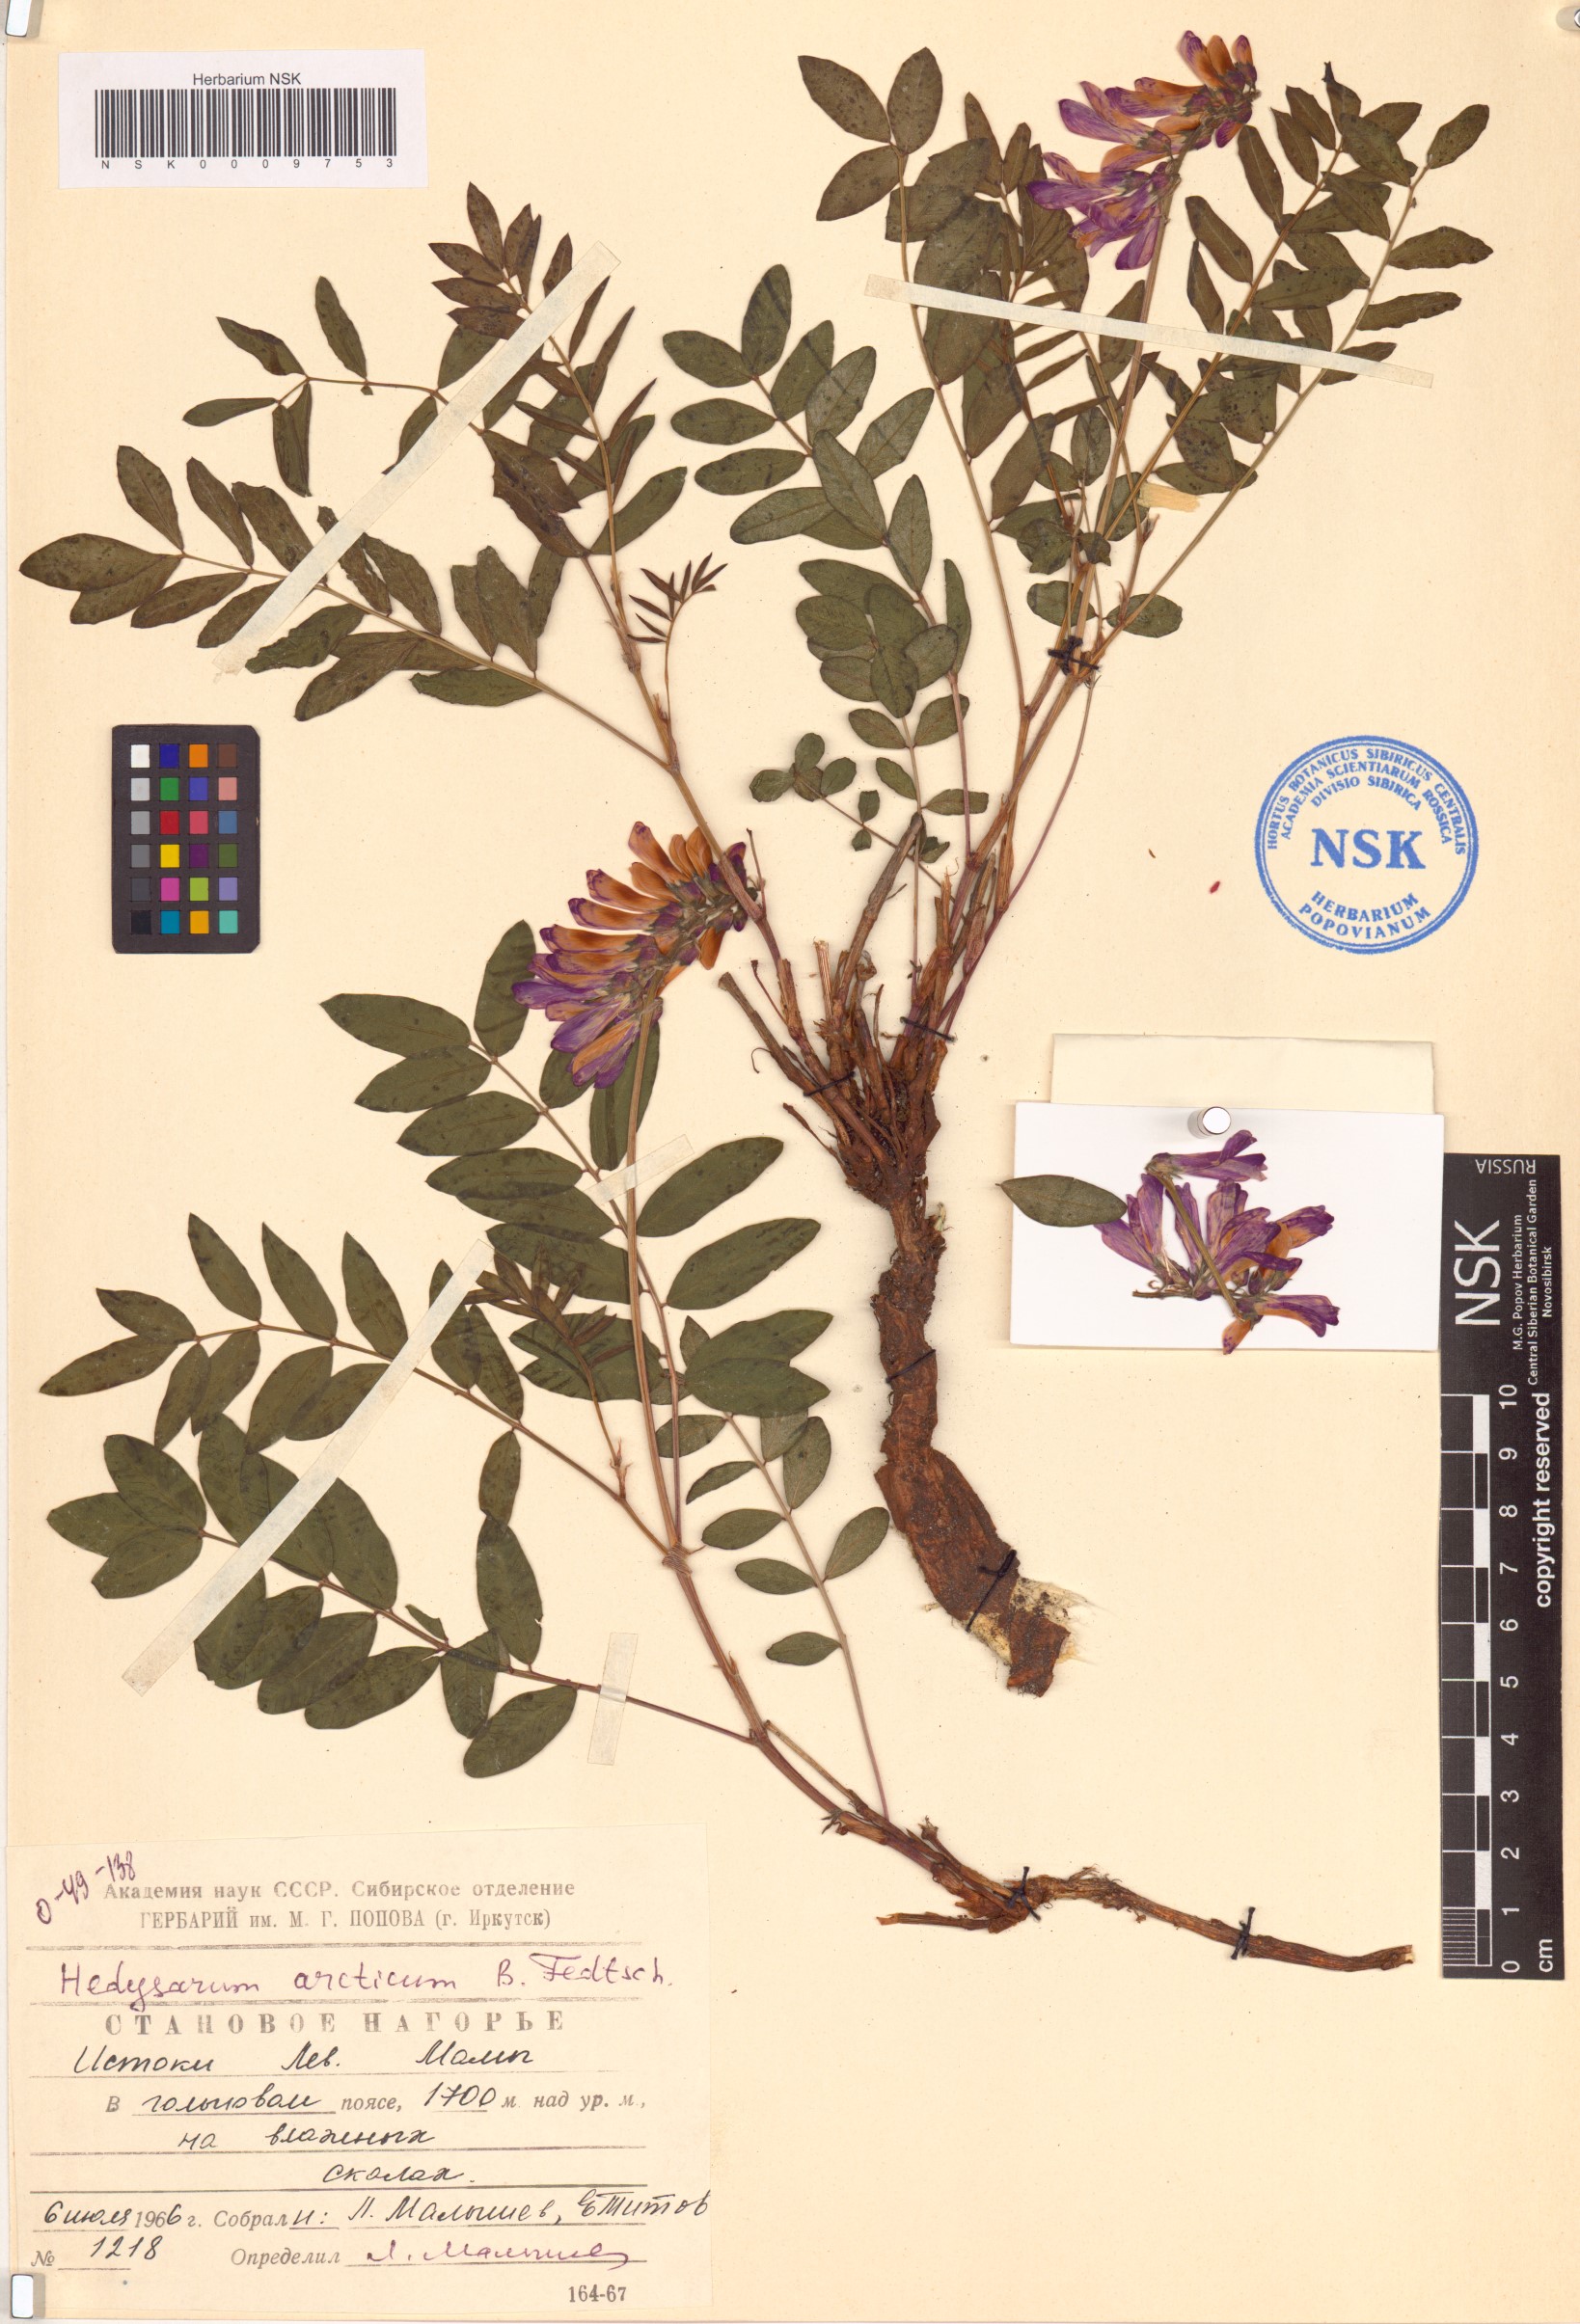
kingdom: Plantae
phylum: Tracheophyta
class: Magnoliopsida
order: Fabales
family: Fabaceae
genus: Hedysarum
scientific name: Hedysarum hedysaroides
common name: Alpine french-honeysuckle
